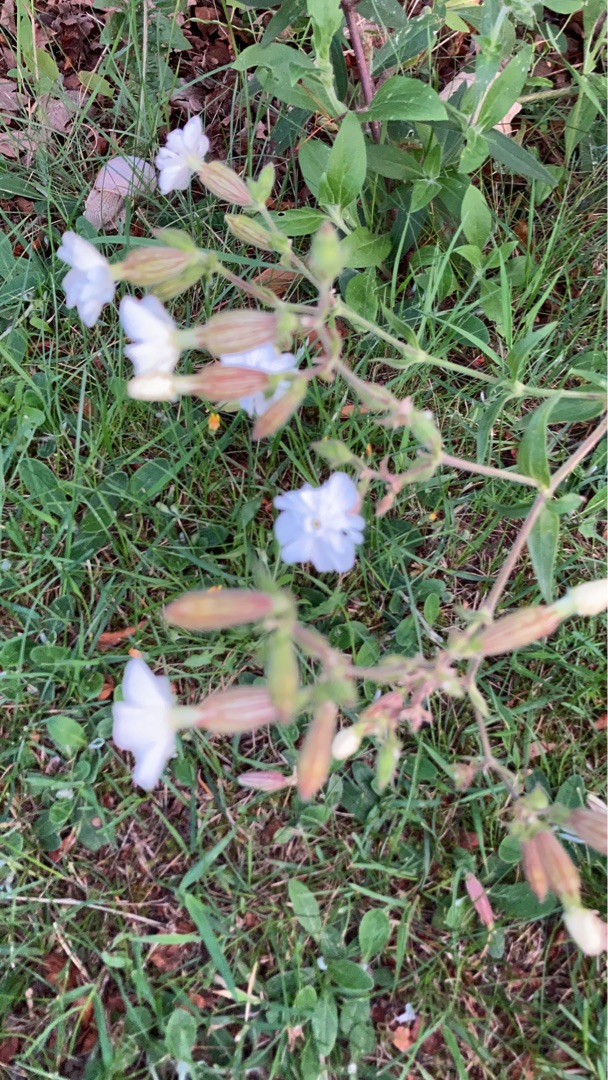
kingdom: Plantae
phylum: Tracheophyta
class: Magnoliopsida
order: Caryophyllales
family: Caryophyllaceae
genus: Silene
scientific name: Silene latifolia
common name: Aftenpragtstjerne
